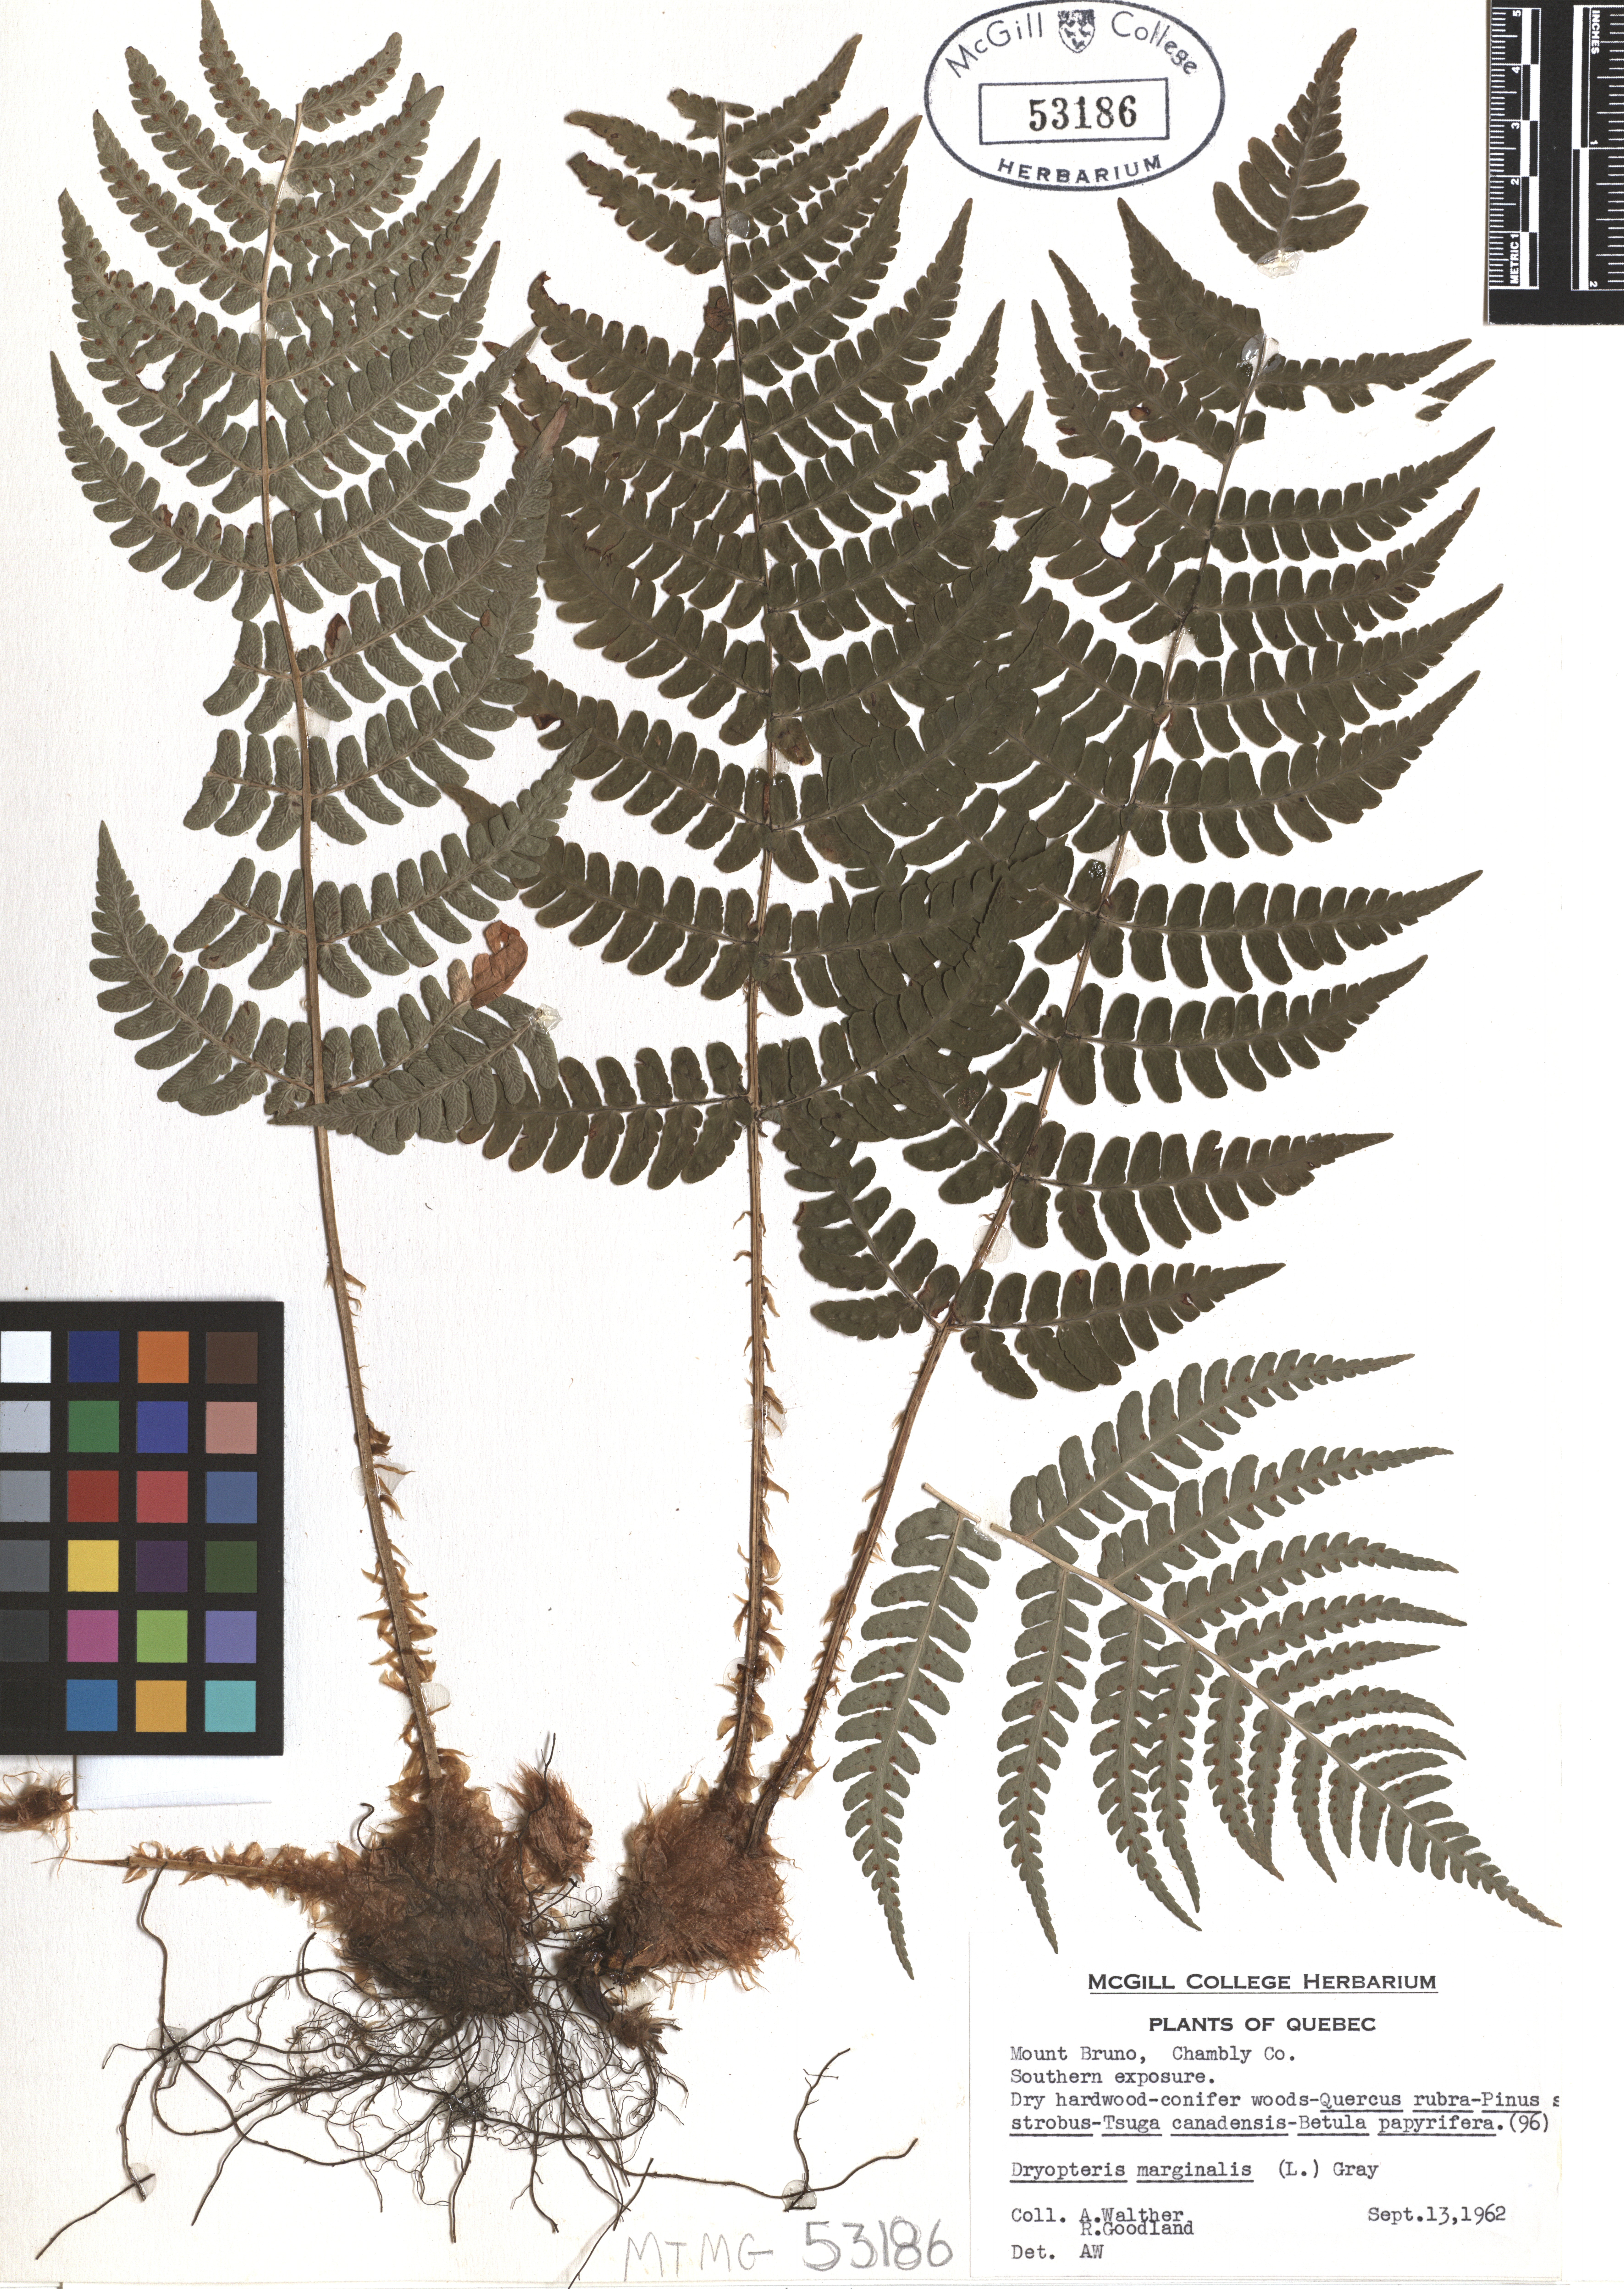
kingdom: Plantae
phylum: Tracheophyta
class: Polypodiopsida
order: Polypodiales
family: Dryopteridaceae
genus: Dryopteris
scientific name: Dryopteris marginalis
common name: Marginal wood fern
